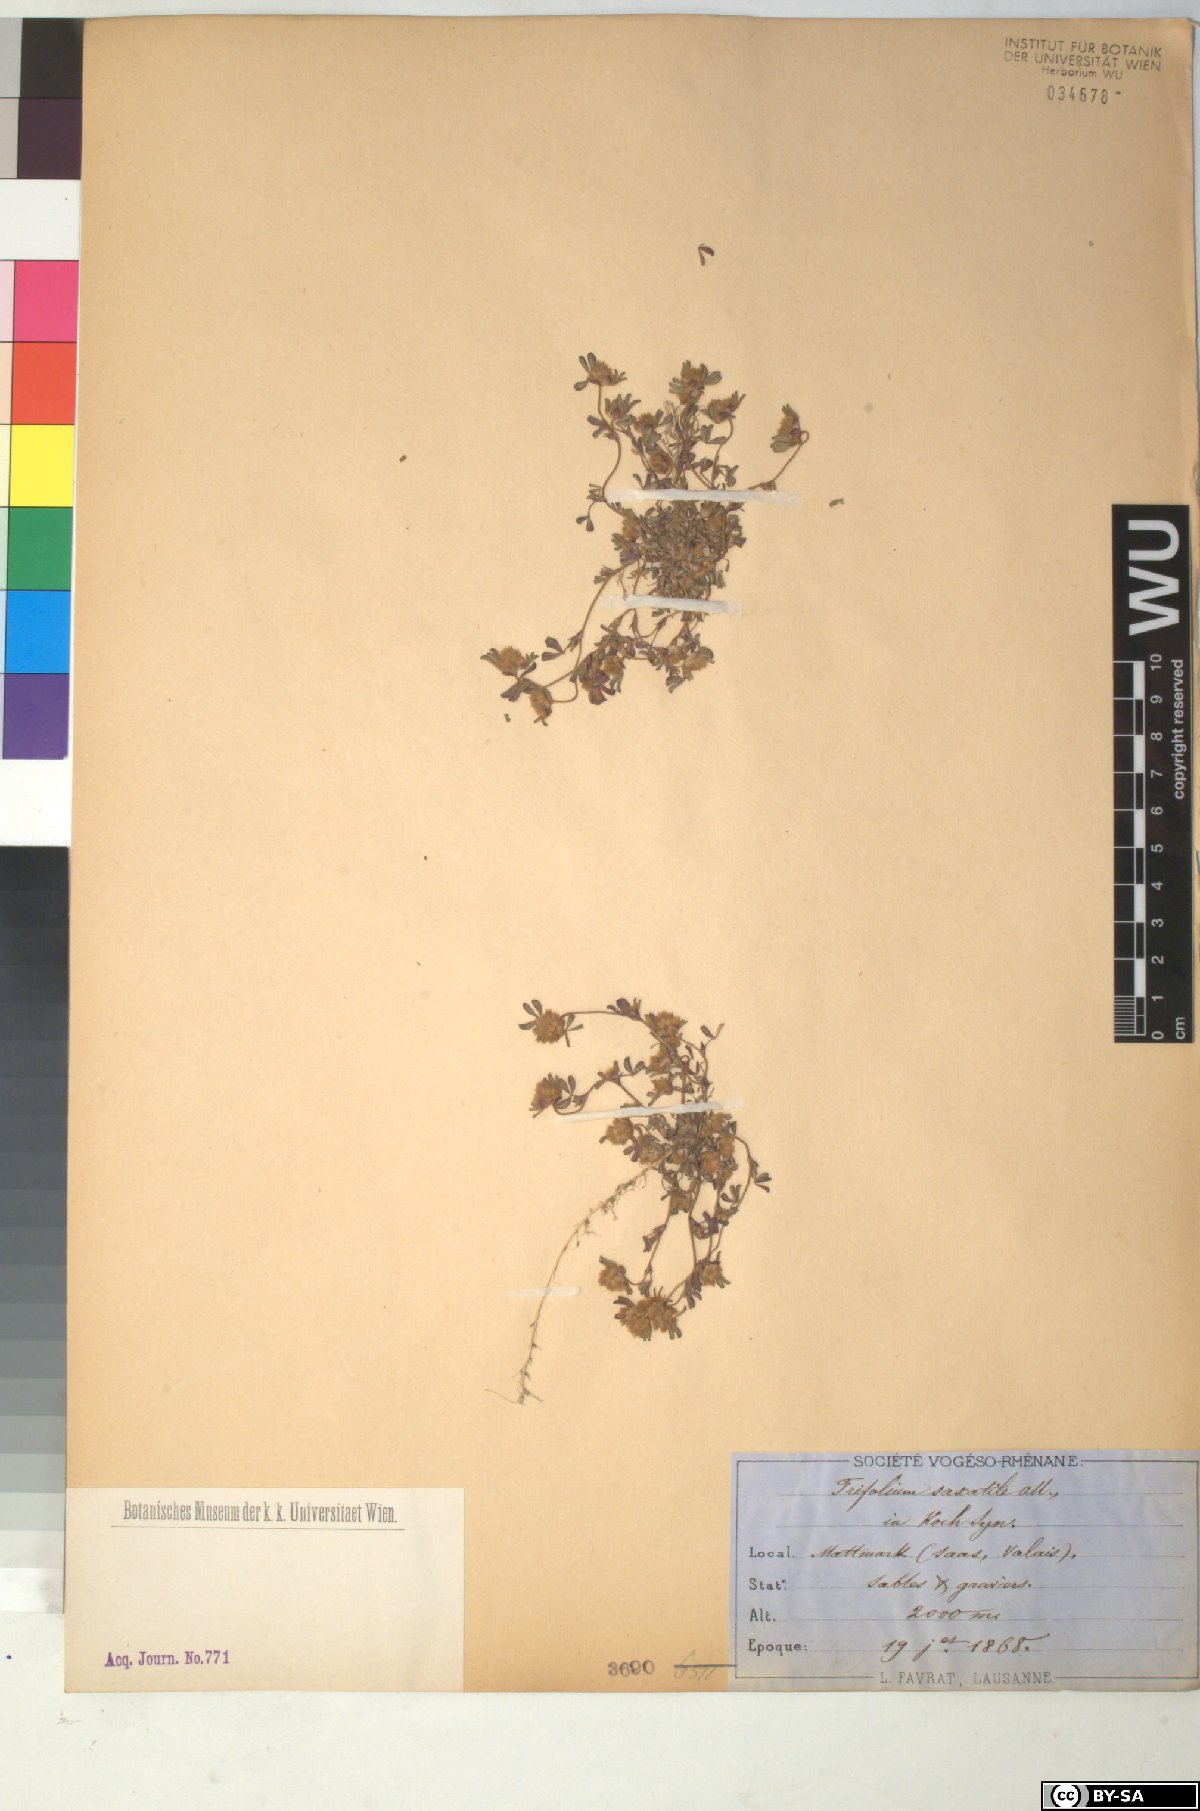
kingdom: Plantae
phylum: Tracheophyta
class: Magnoliopsida
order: Fabales
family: Fabaceae
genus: Trifolium
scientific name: Trifolium saxatile
